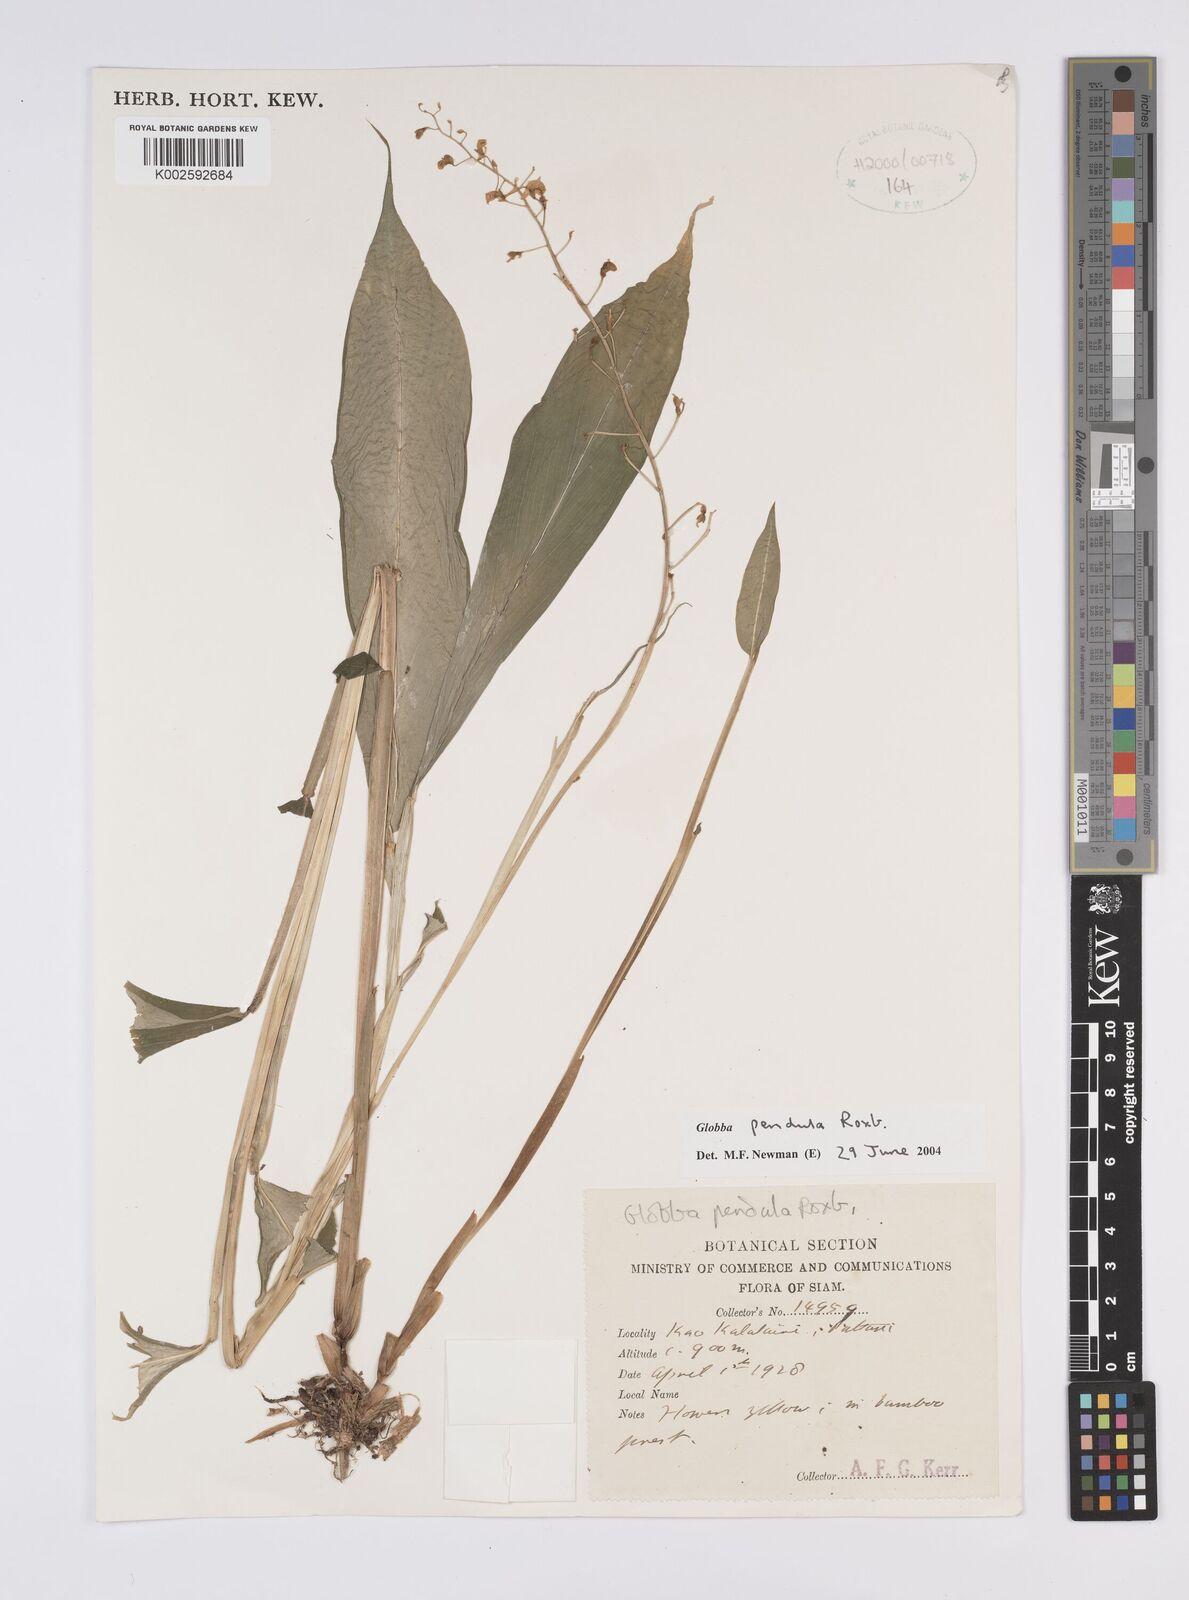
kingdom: Plantae
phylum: Tracheophyta
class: Liliopsida
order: Zingiberales
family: Zingiberaceae
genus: Globba
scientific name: Globba pendula
